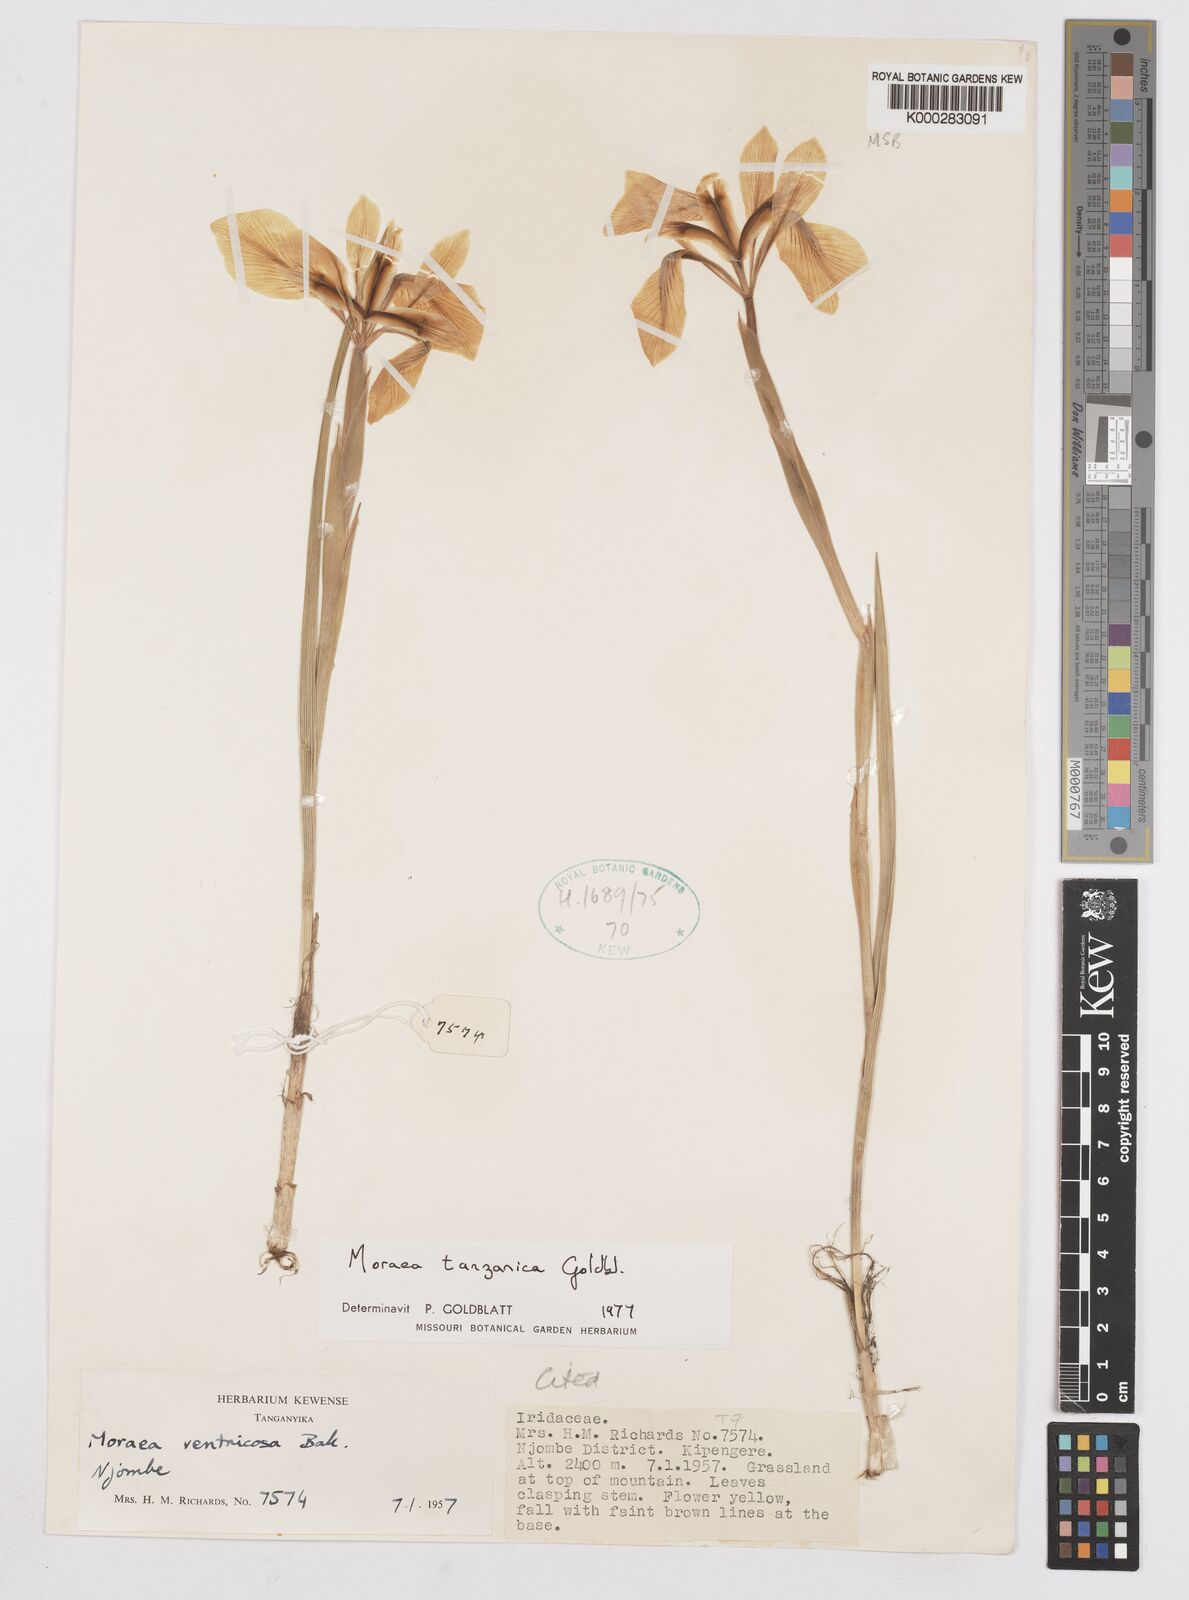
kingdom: Plantae
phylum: Tracheophyta
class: Liliopsida
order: Asparagales
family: Iridaceae
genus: Moraea
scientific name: Moraea tanzanica
